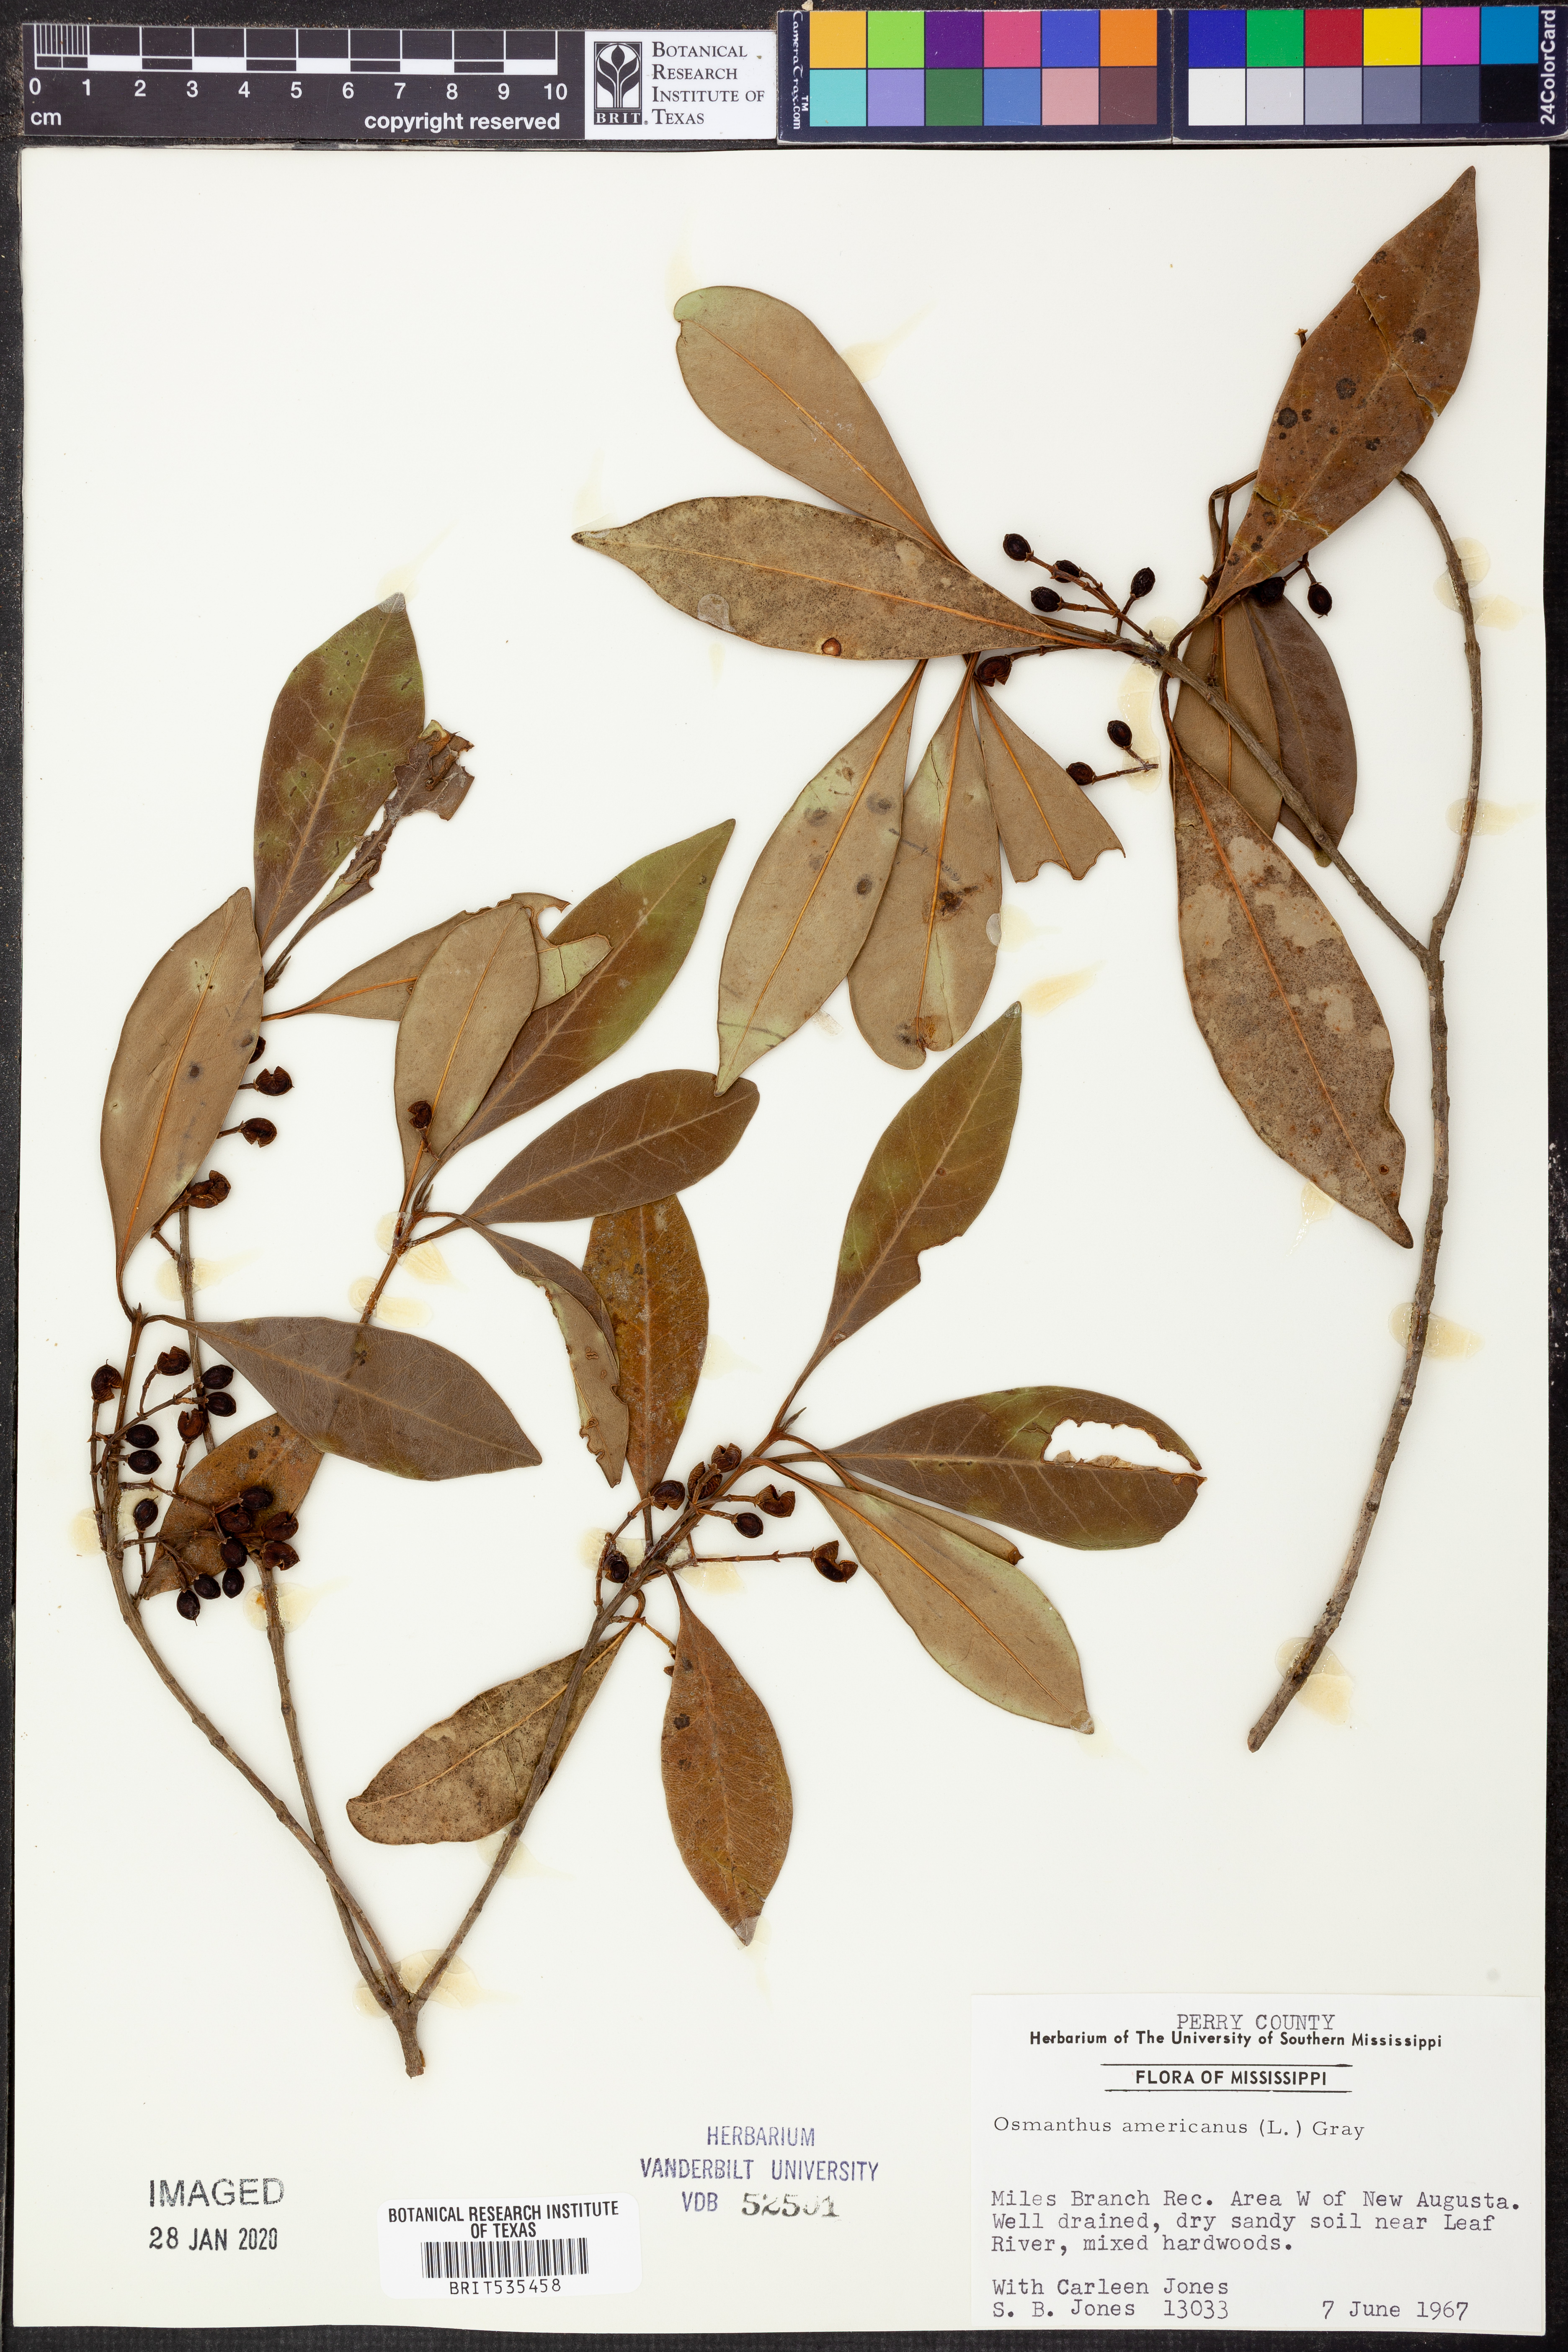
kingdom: Plantae
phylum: Tracheophyta
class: Magnoliopsida
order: Lamiales
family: Oleaceae
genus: Osmanthus
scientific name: Osmanthus americanus
